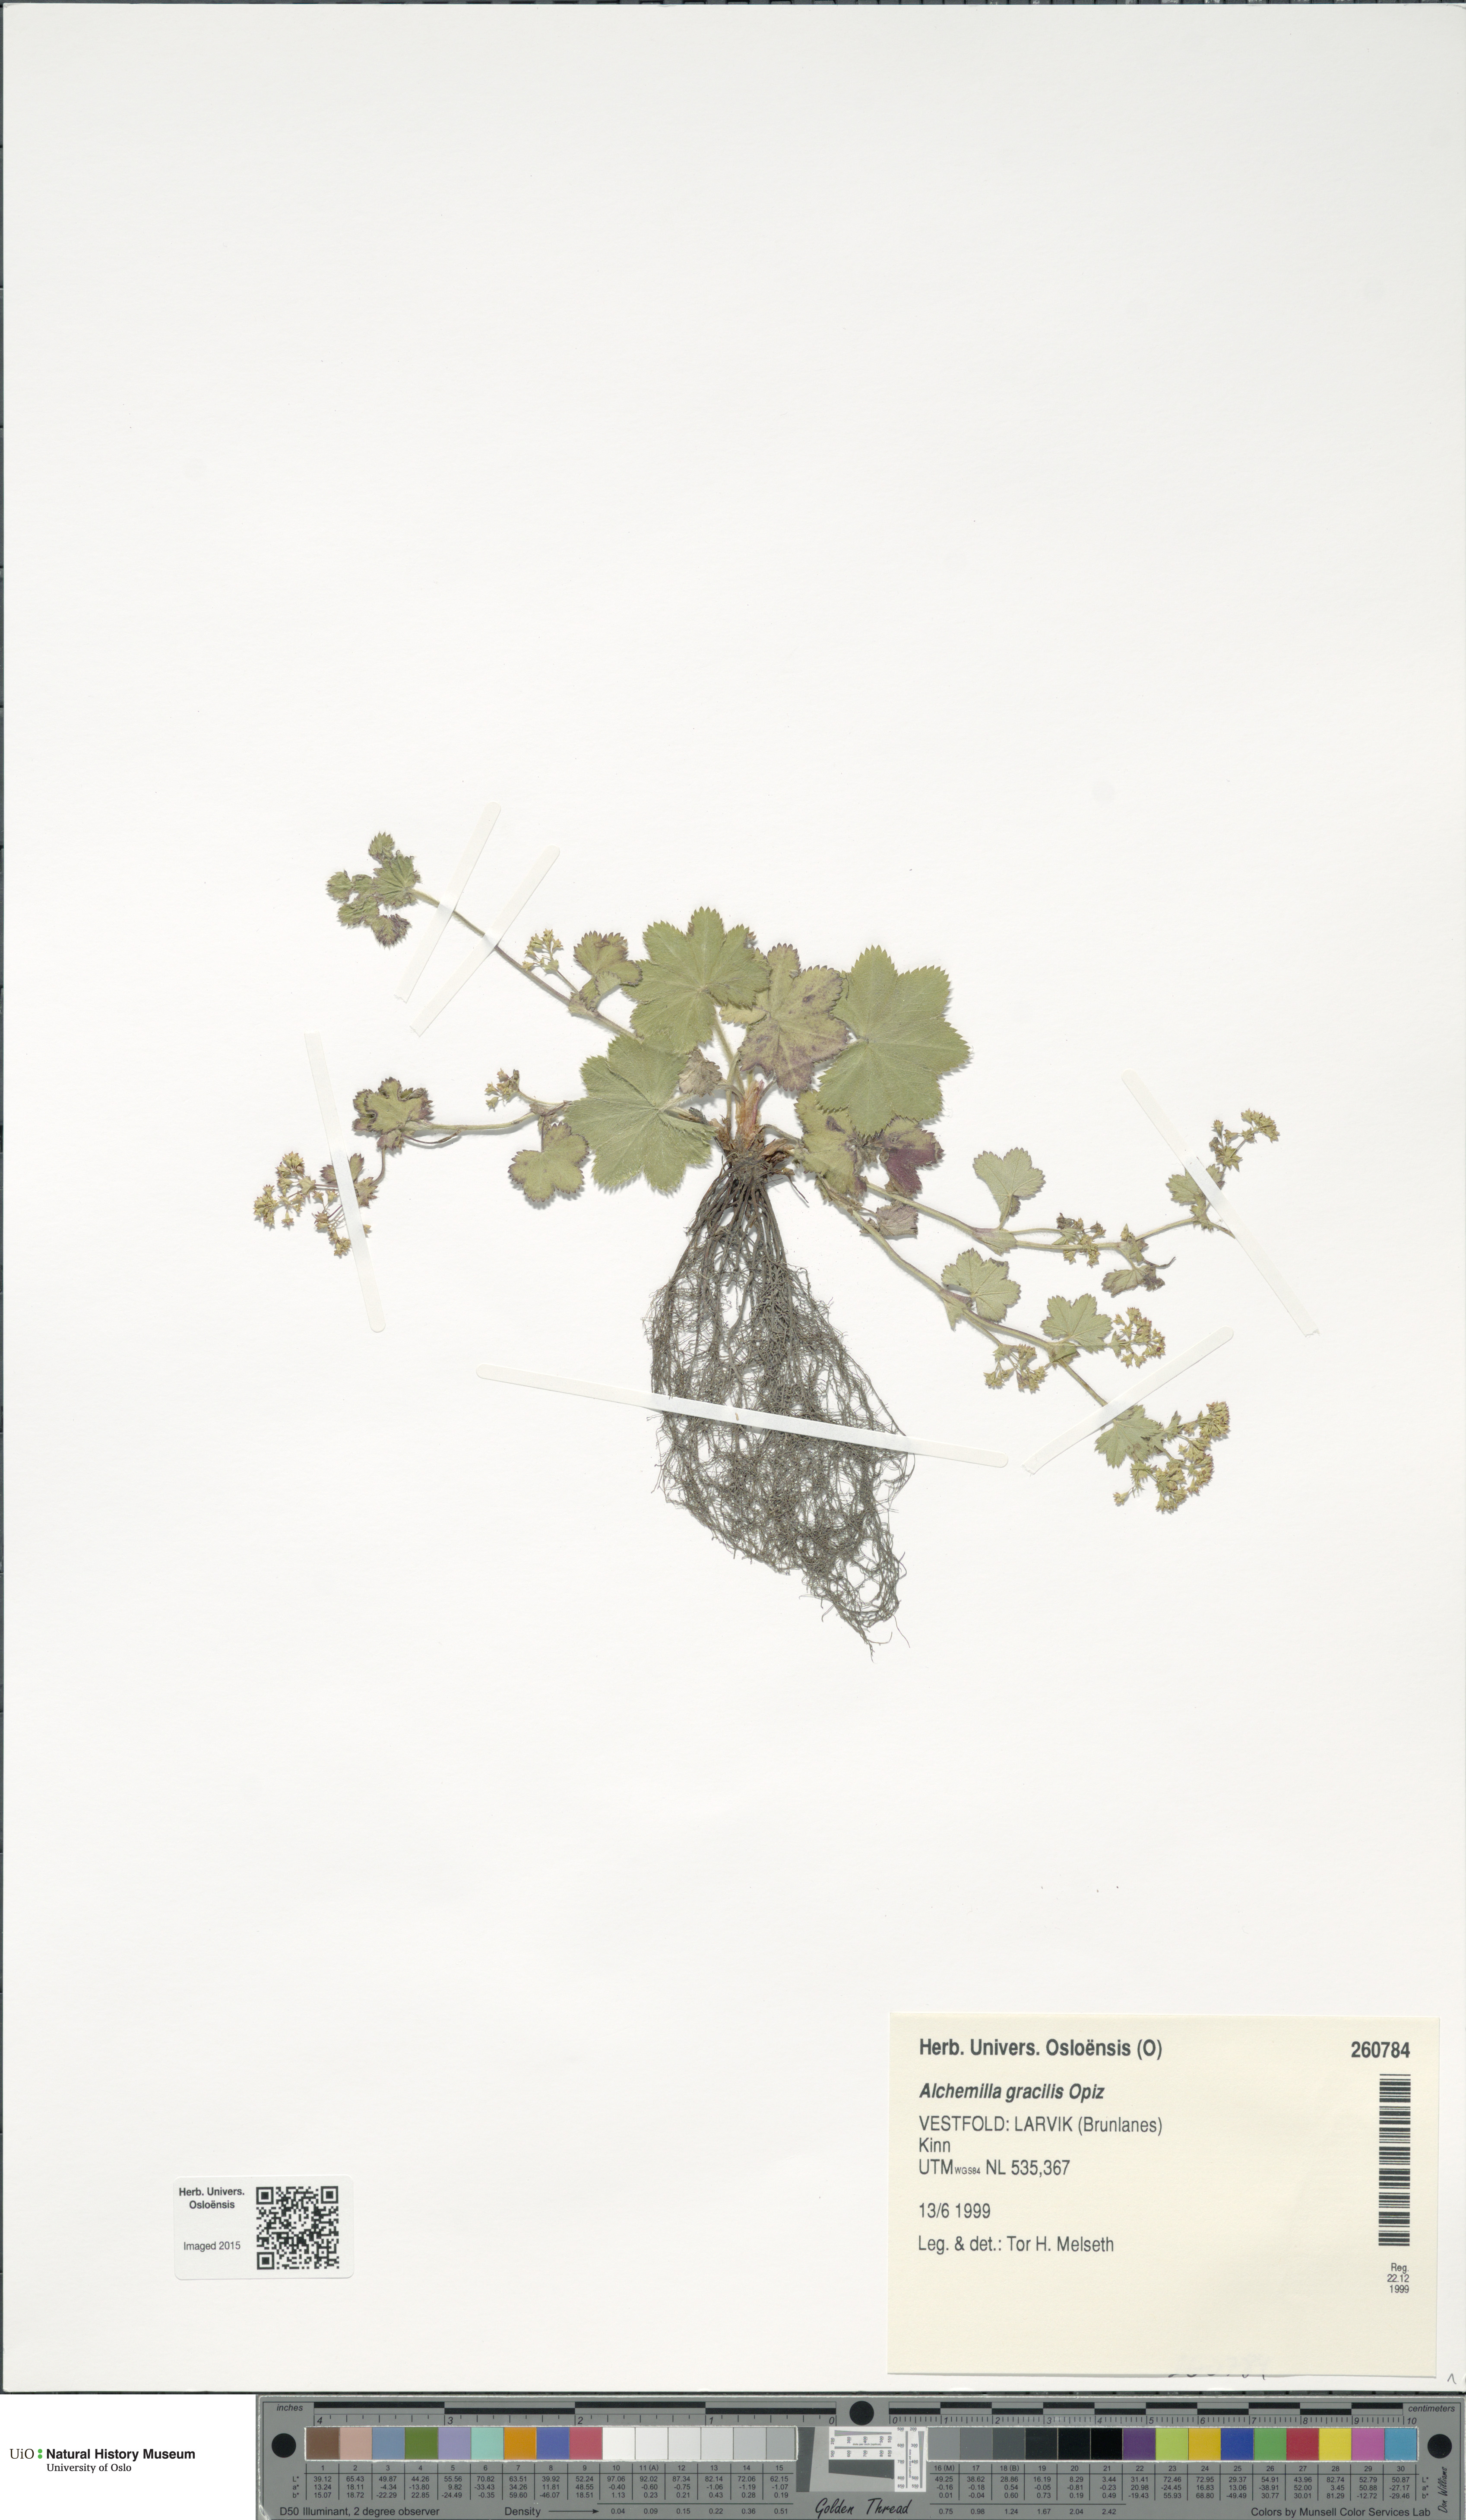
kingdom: Plantae
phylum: Tracheophyta
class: Magnoliopsida
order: Rosales
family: Rosaceae
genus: Alchemilla
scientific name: Alchemilla micans
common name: Gleaming lady's mantle
